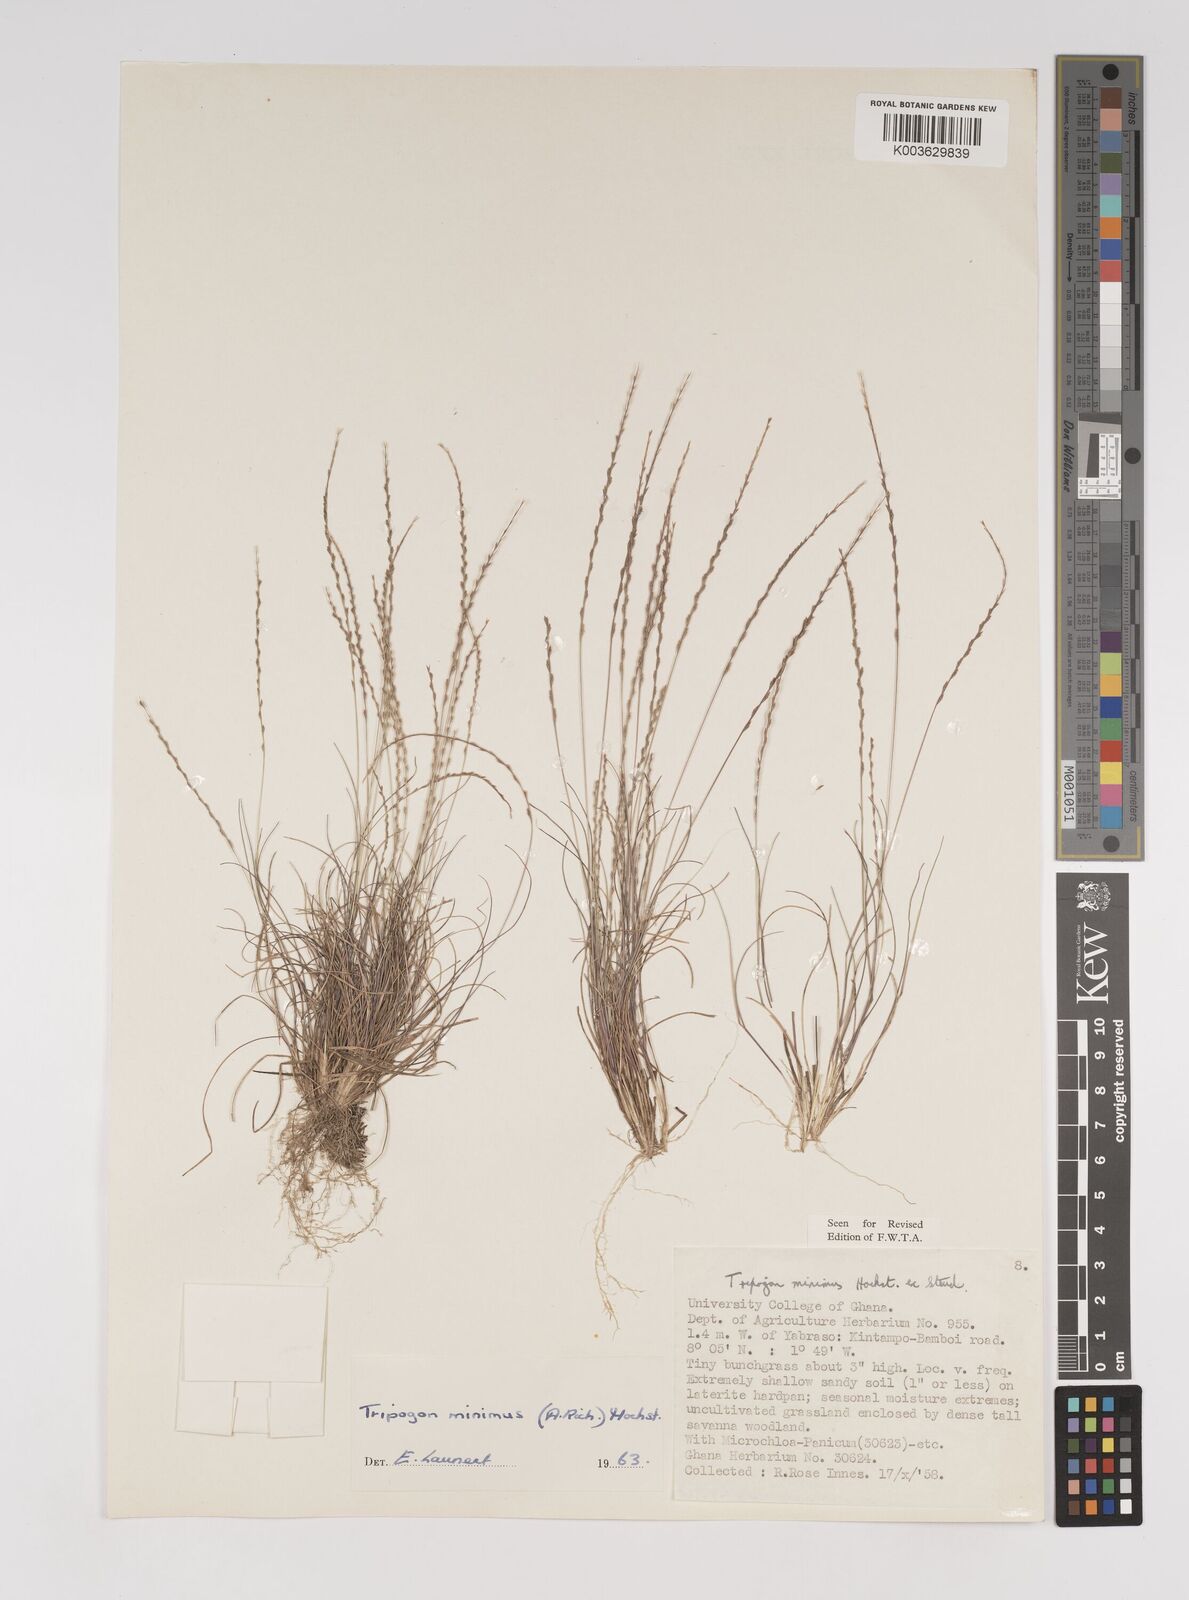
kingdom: Plantae
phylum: Tracheophyta
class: Liliopsida
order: Poales
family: Poaceae
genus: Tripogonella
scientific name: Tripogonella minima
